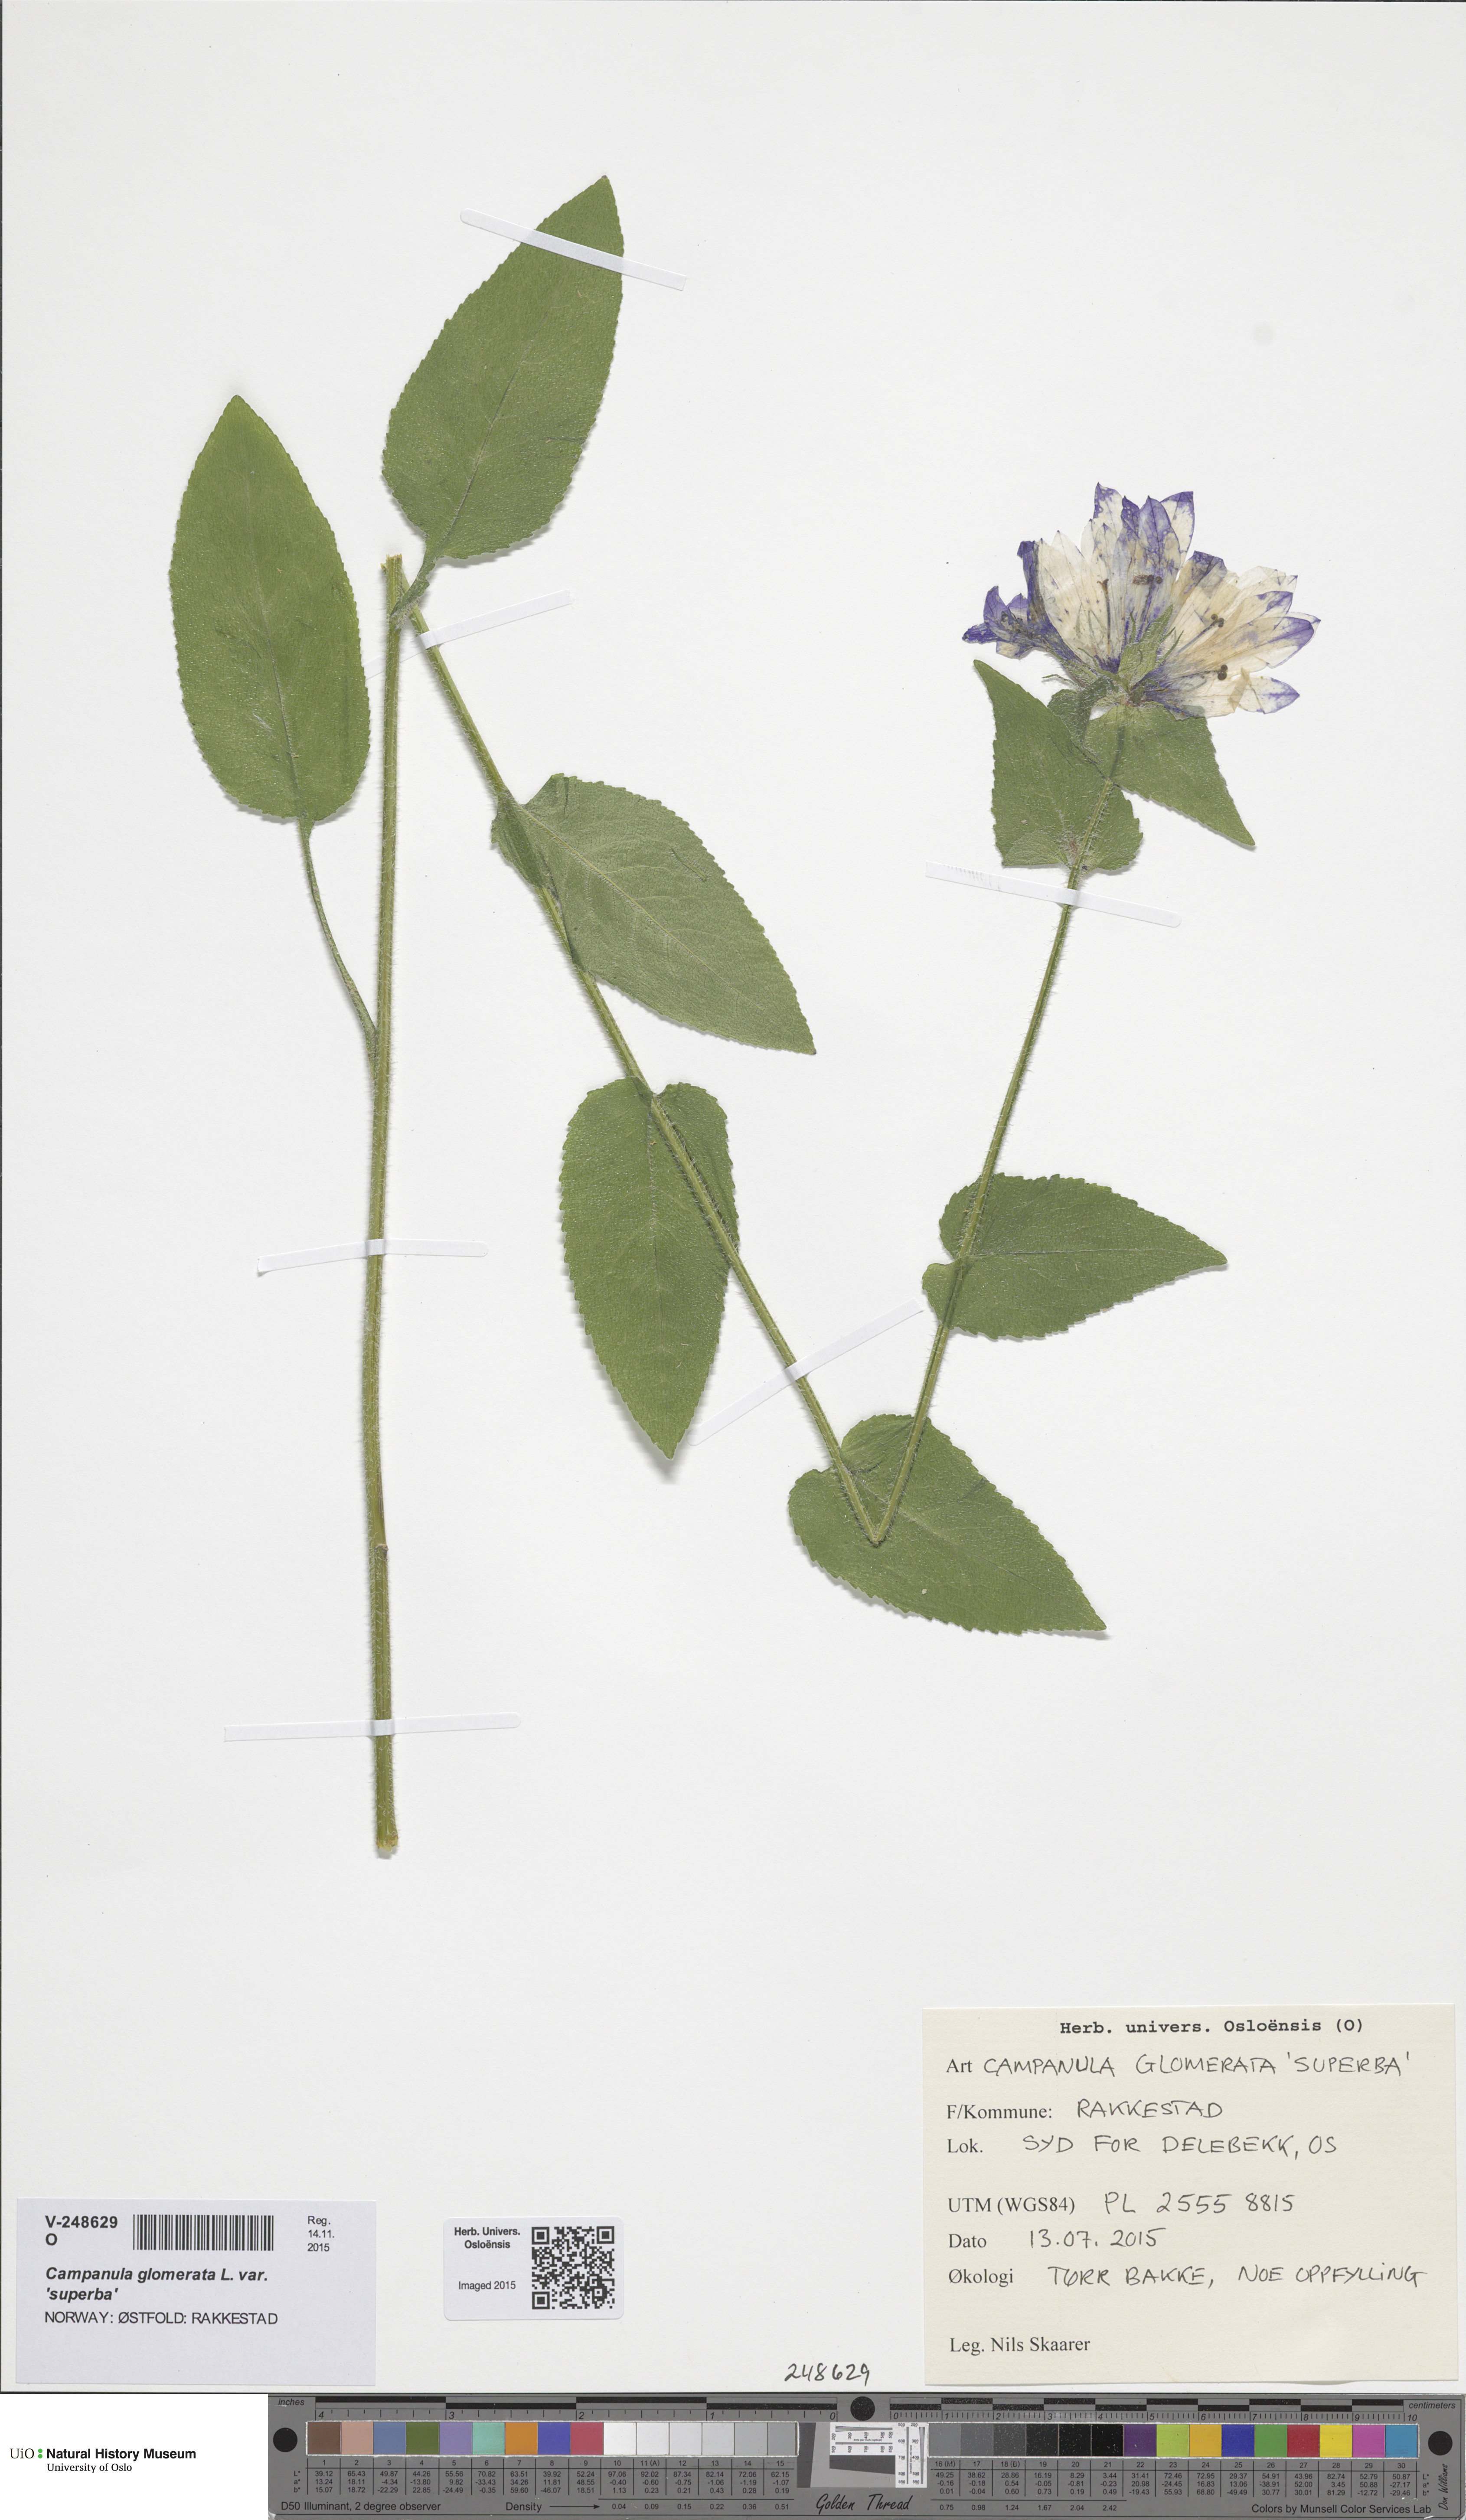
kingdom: Plantae
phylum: Tracheophyta
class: Magnoliopsida
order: Asterales
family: Campanulaceae
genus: Campanula
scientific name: Campanula glomerata
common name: Clustered bellflower
